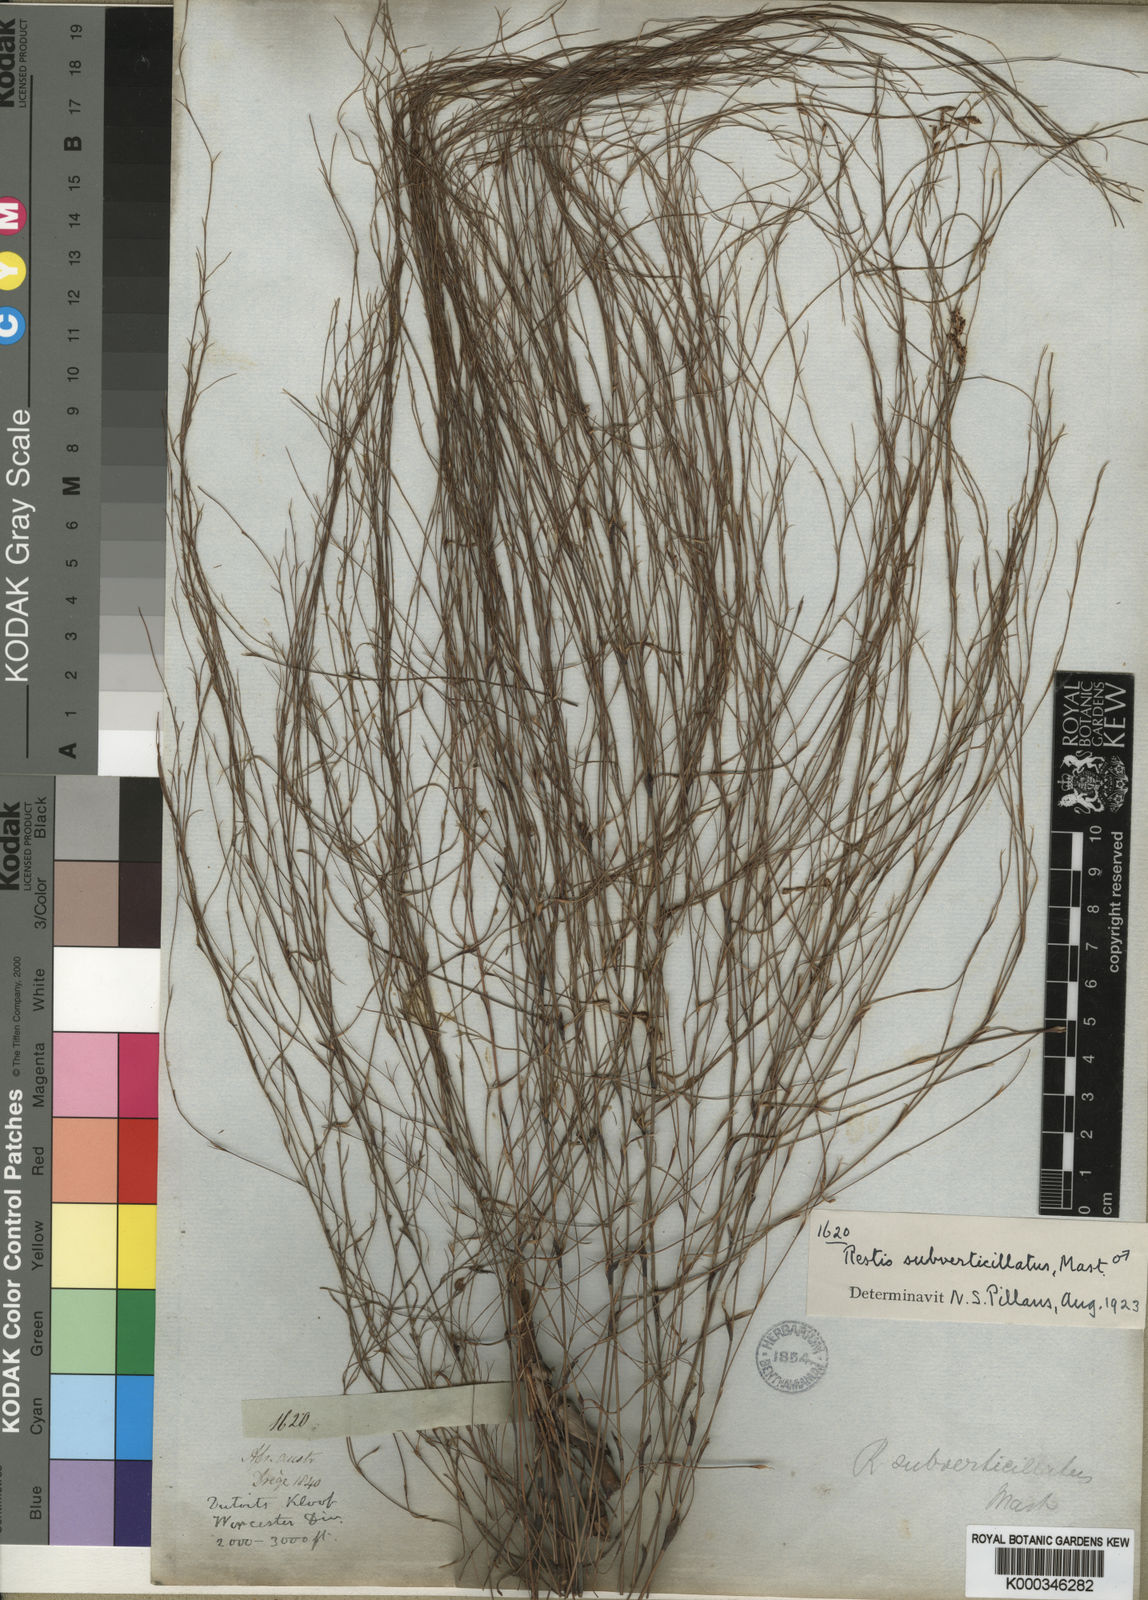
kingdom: Plantae
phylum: Tracheophyta
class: Liliopsida
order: Poales
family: Restionaceae
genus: Restio
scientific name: Restio subverticillatus
